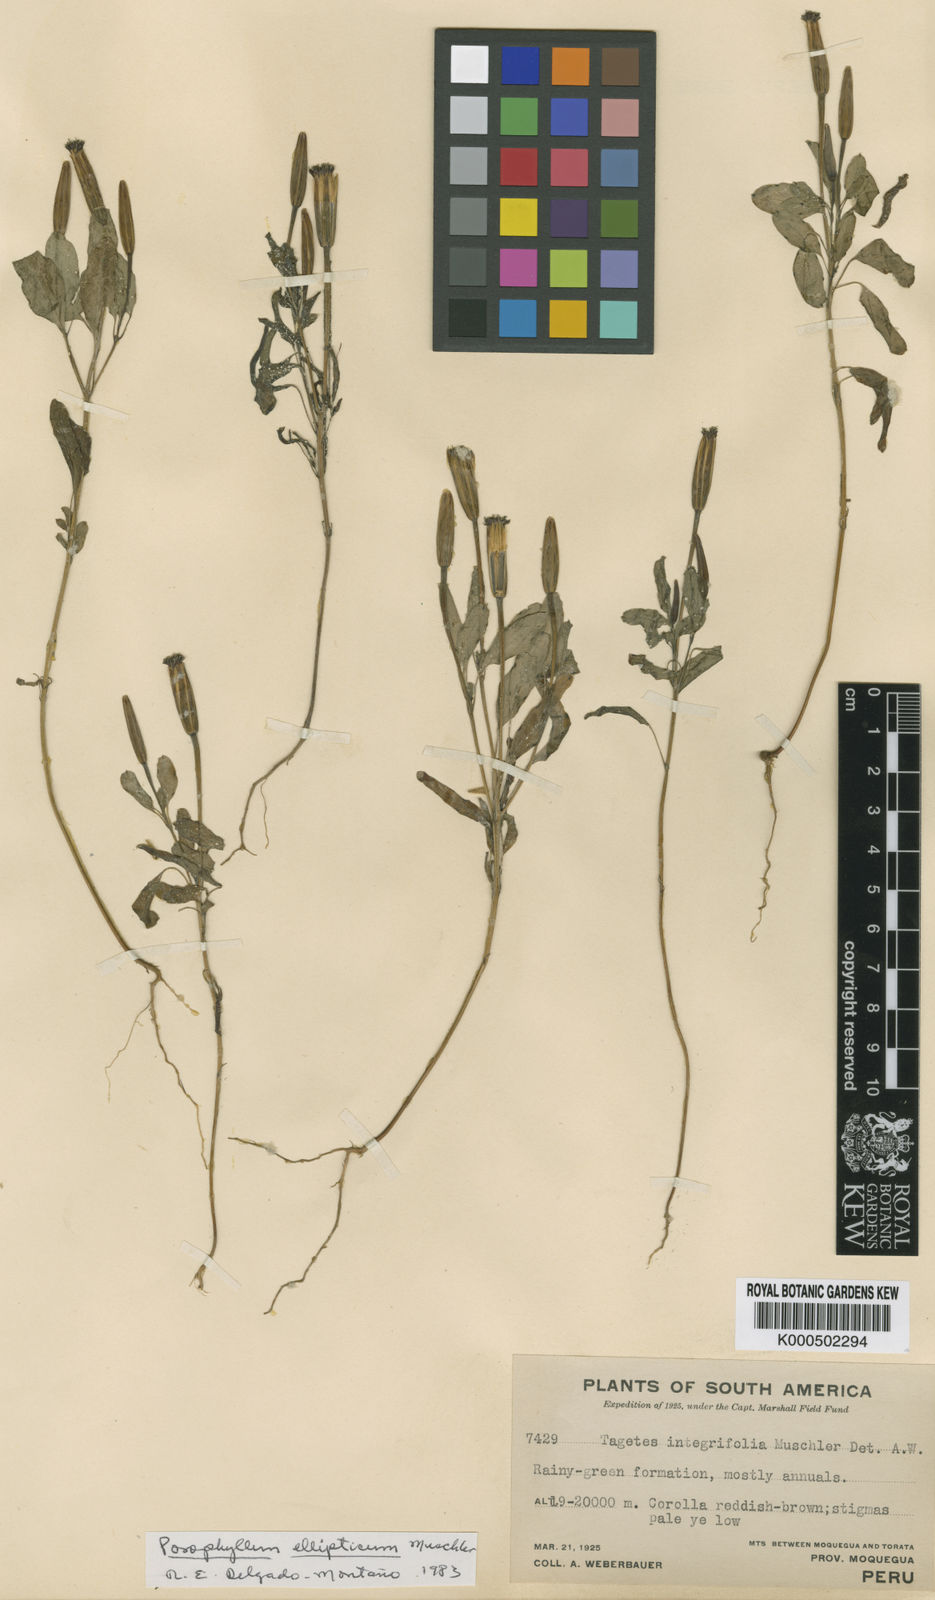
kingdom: Plantae
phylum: Tracheophyta
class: Magnoliopsida
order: Asterales
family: Asteraceae
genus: Porophyllum
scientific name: Porophyllum
